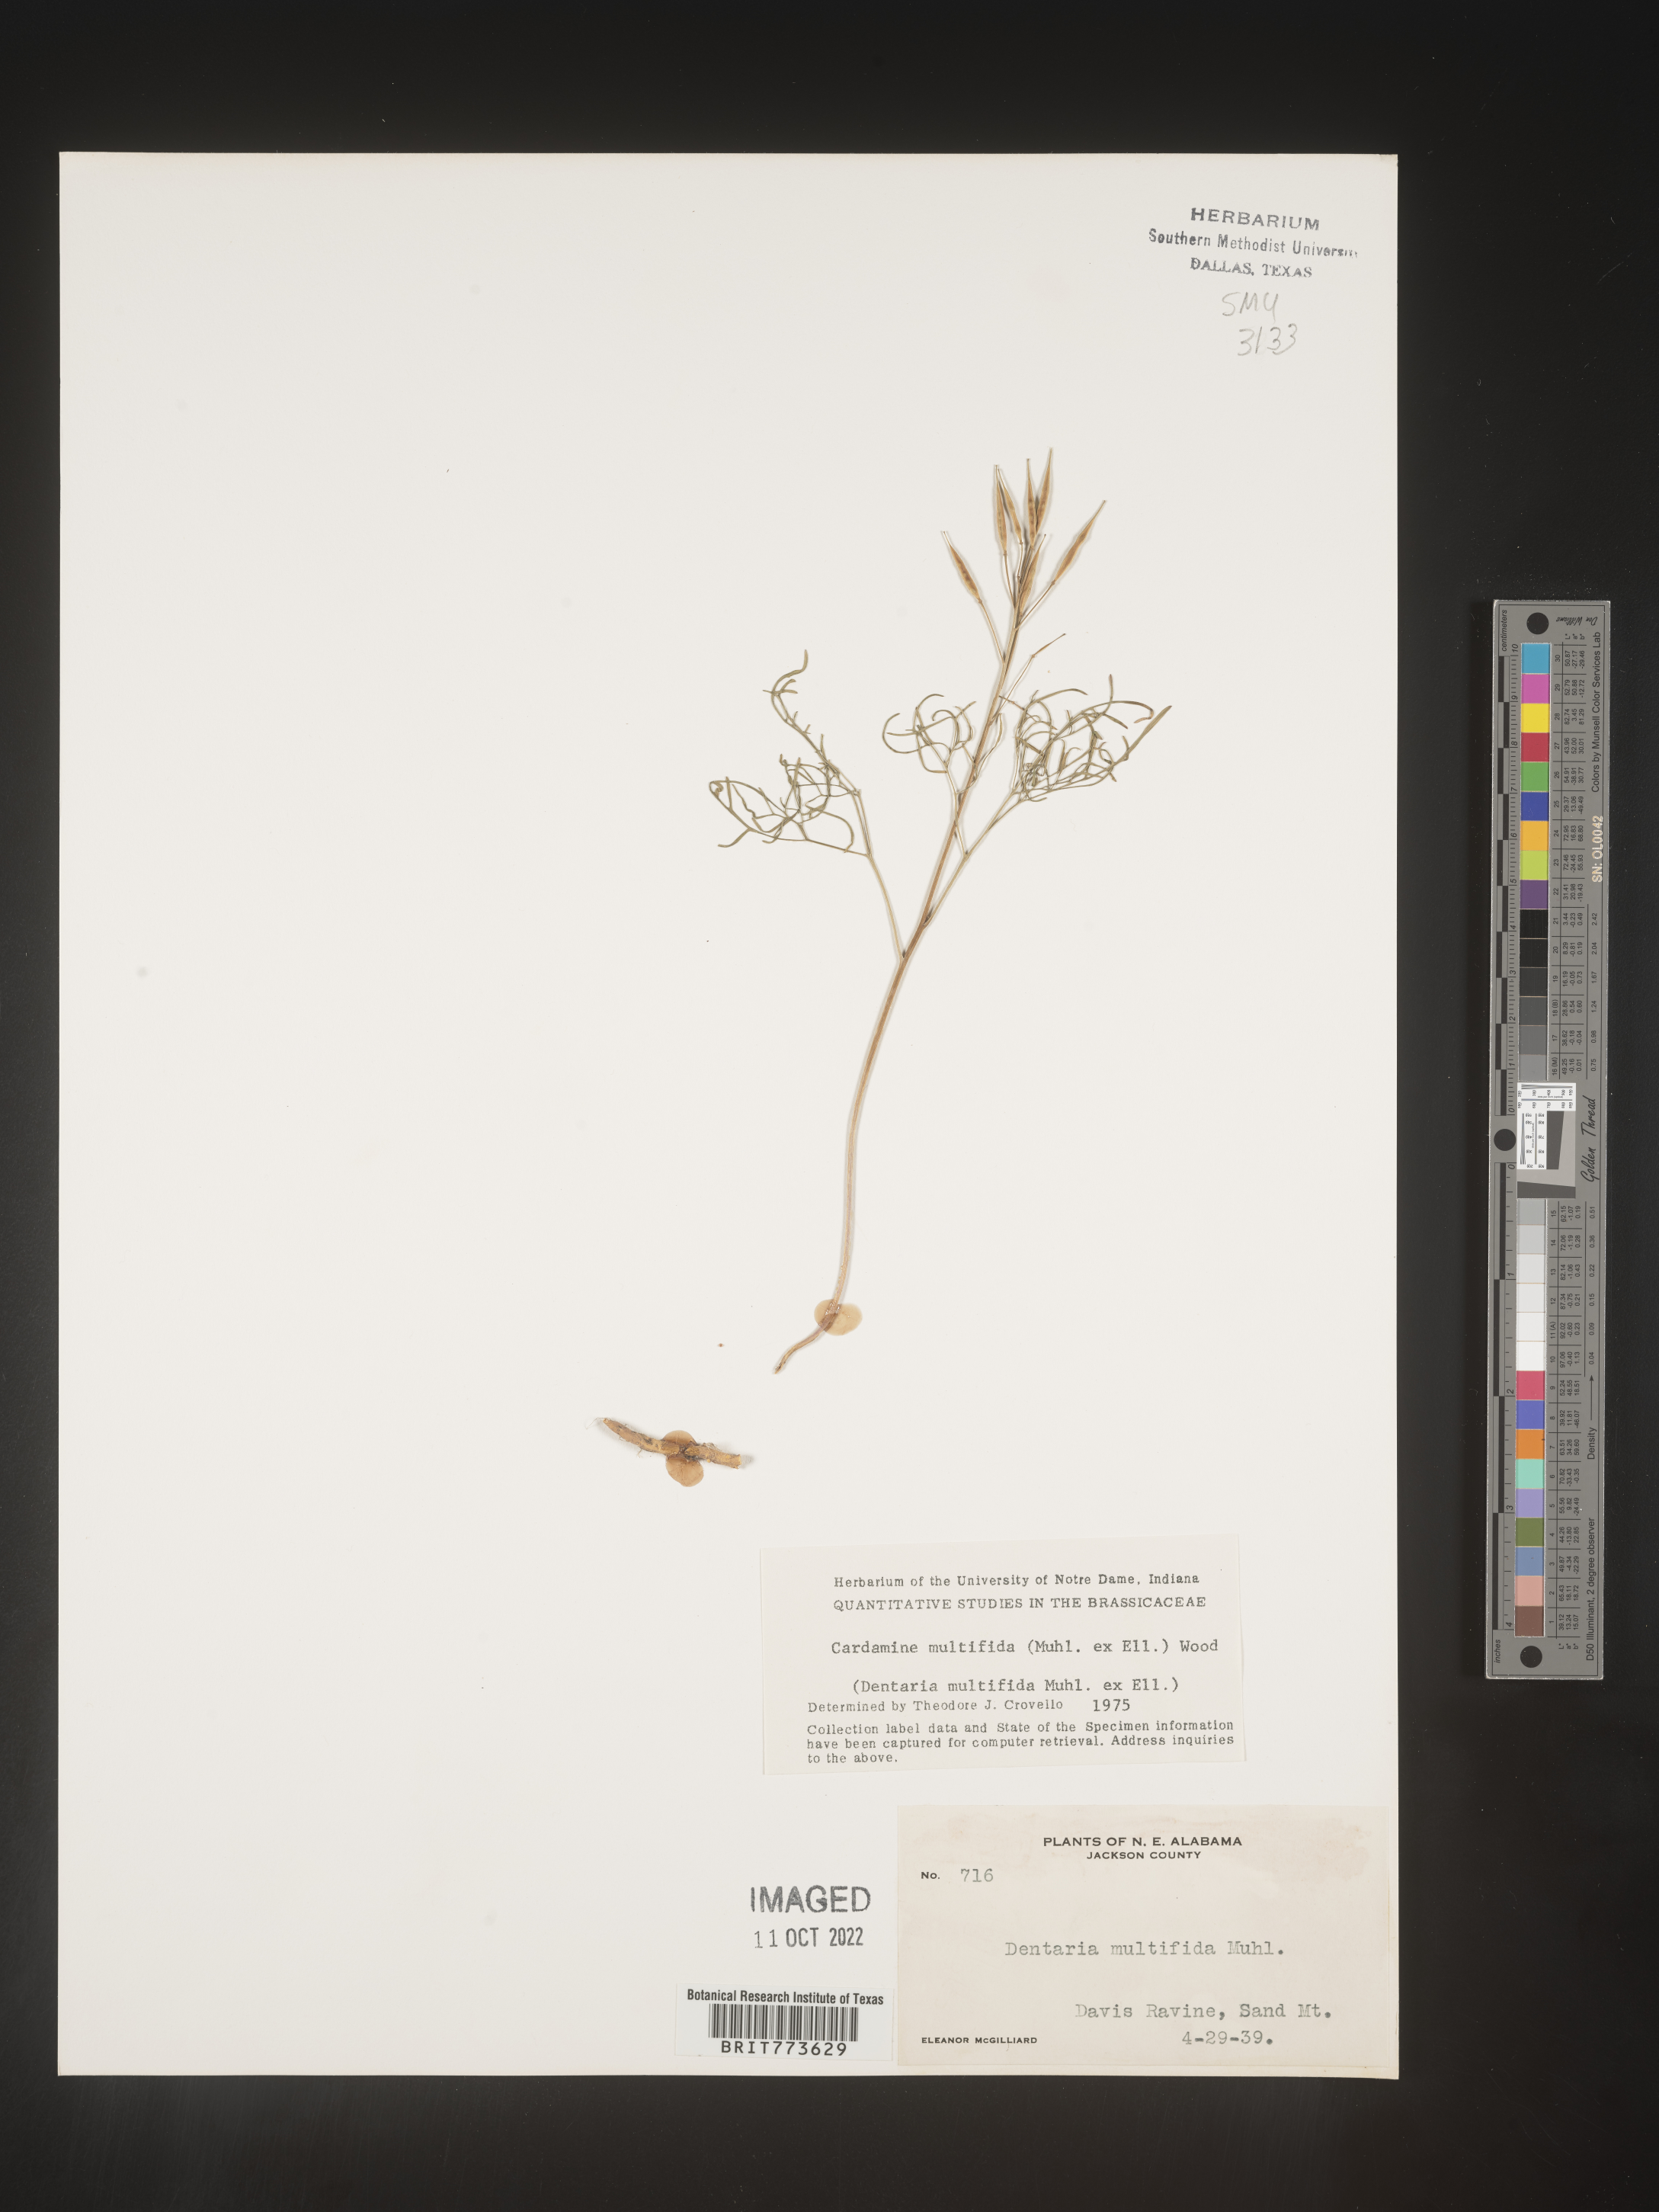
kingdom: Plantae
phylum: Tracheophyta
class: Magnoliopsida
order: Brassicales
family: Brassicaceae
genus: Cardamine
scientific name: Cardamine
